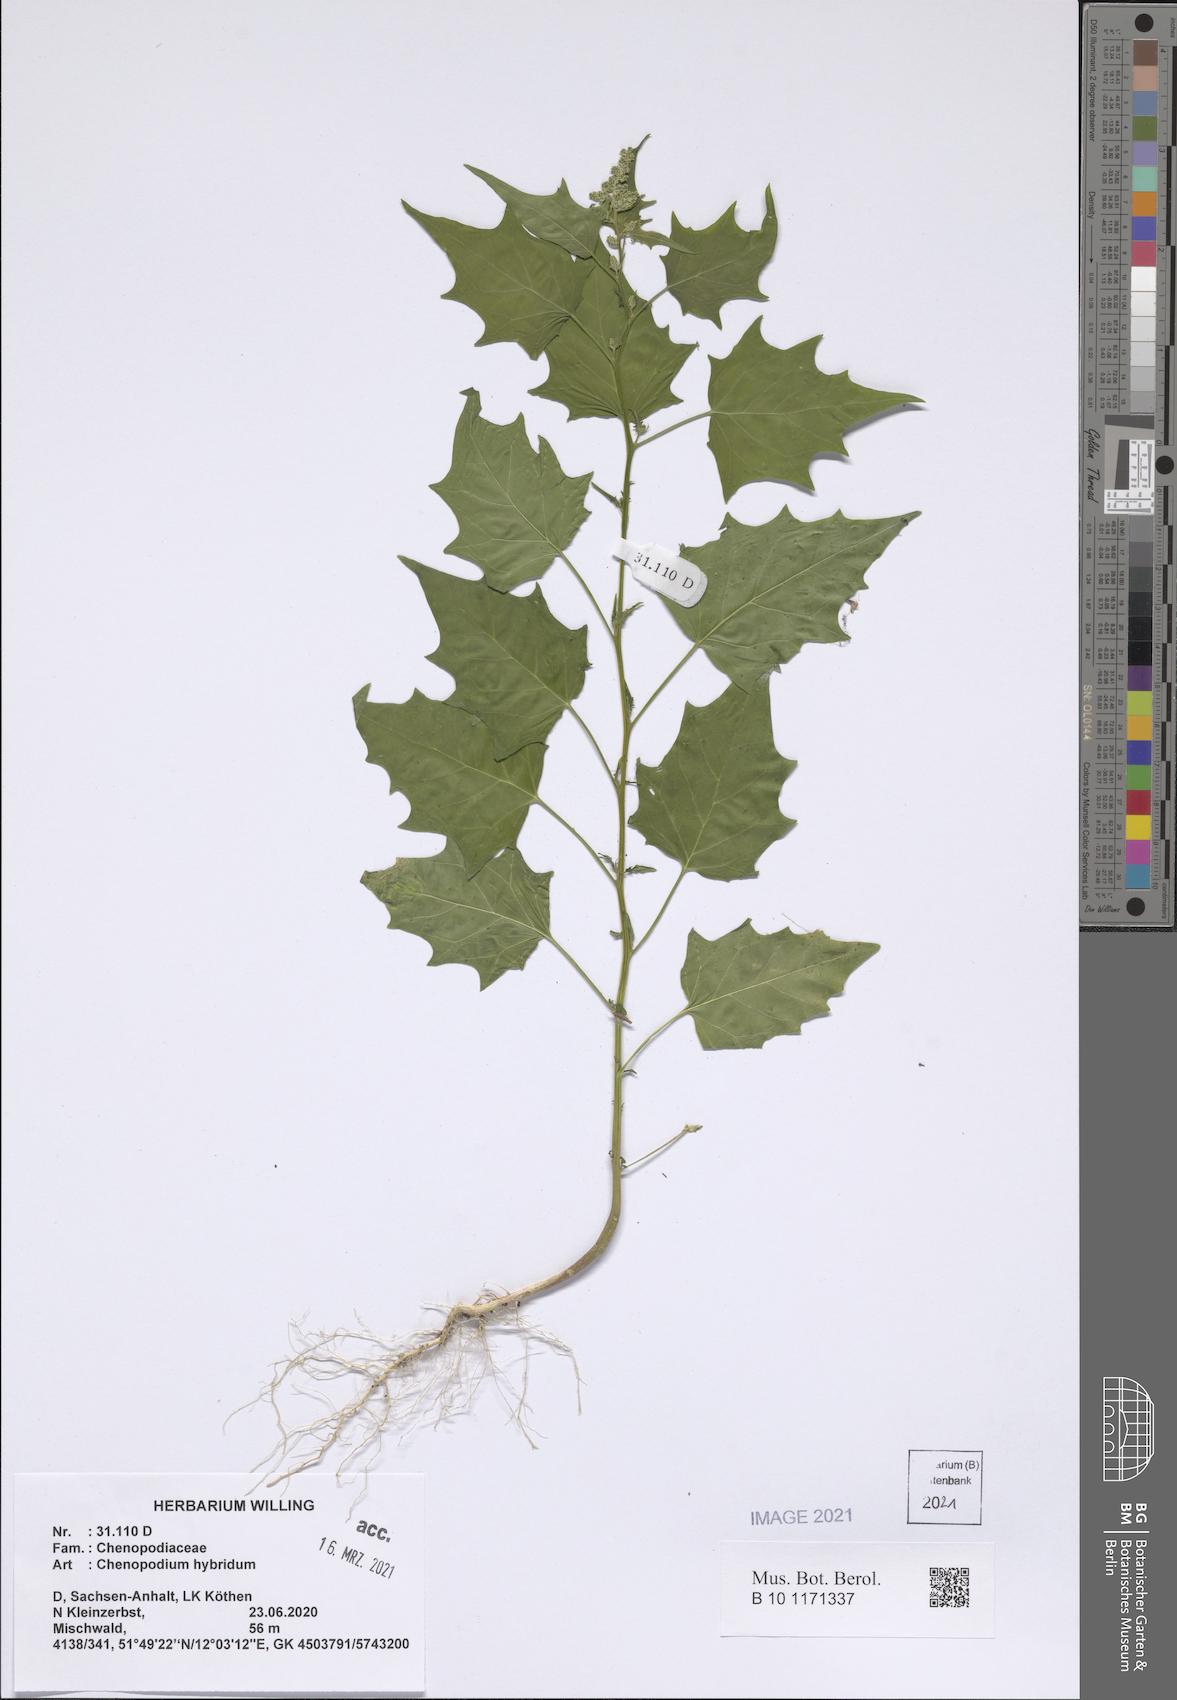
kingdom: Plantae
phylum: Tracheophyta
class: Magnoliopsida
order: Caryophyllales
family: Amaranthaceae
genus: Chenopodiastrum
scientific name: Chenopodiastrum hybridum
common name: Mapleleaf goosefoot
